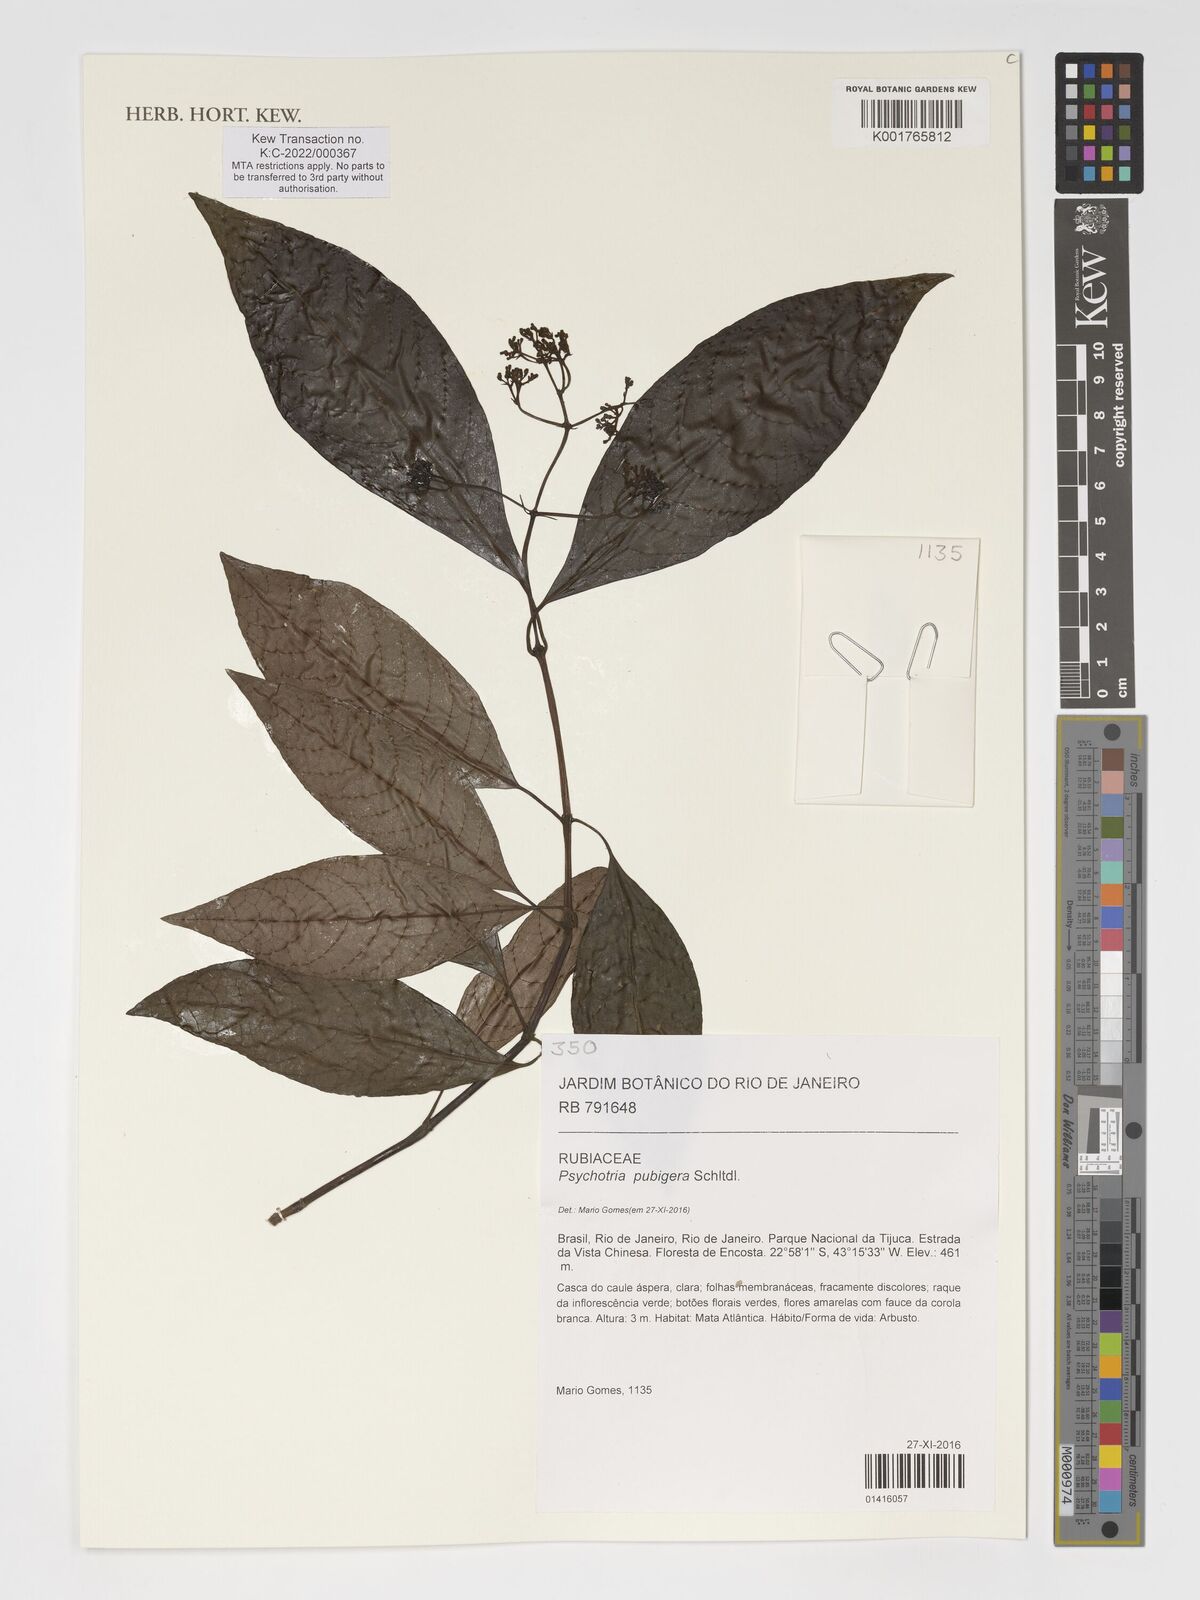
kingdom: Plantae
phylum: Tracheophyta
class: Magnoliopsida
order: Gentianales
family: Rubiaceae
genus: Psychotria
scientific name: Psychotria nemorosa
